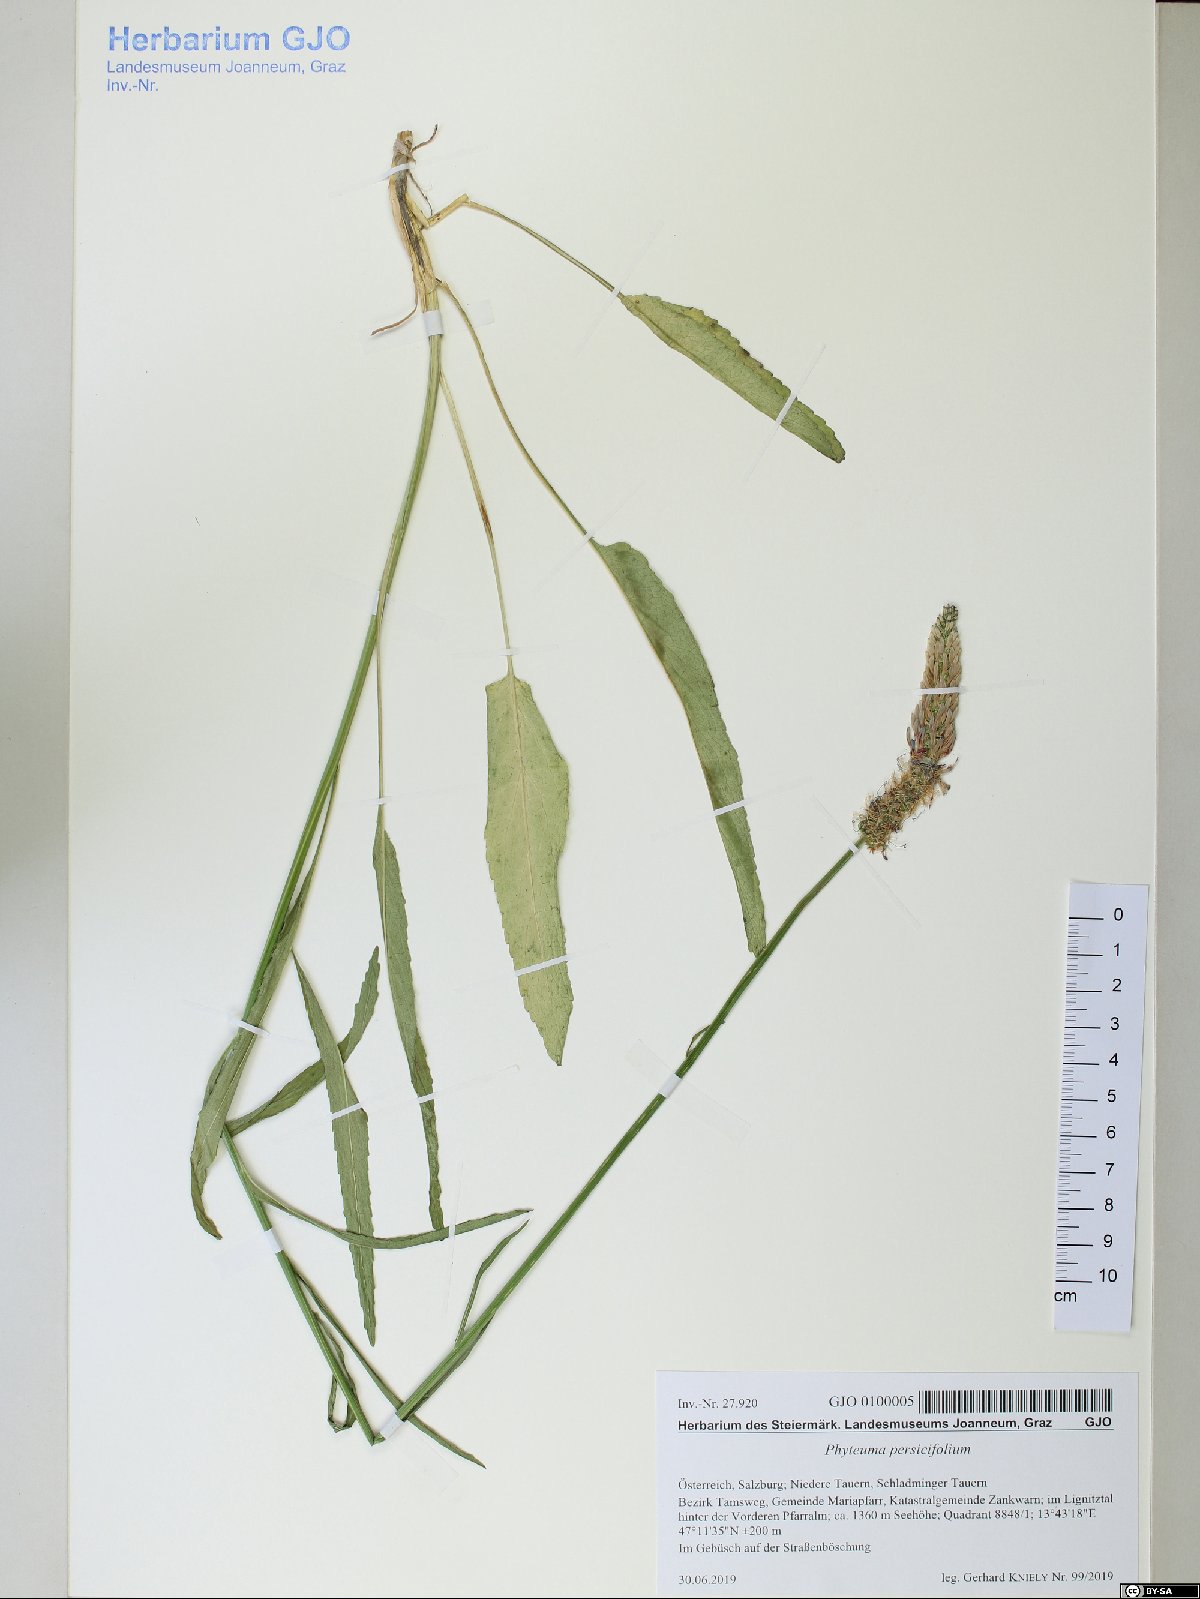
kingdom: Plantae
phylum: Tracheophyta
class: Magnoliopsida
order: Asterales
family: Campanulaceae
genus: Phyteuma
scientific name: Phyteuma persicifolium
